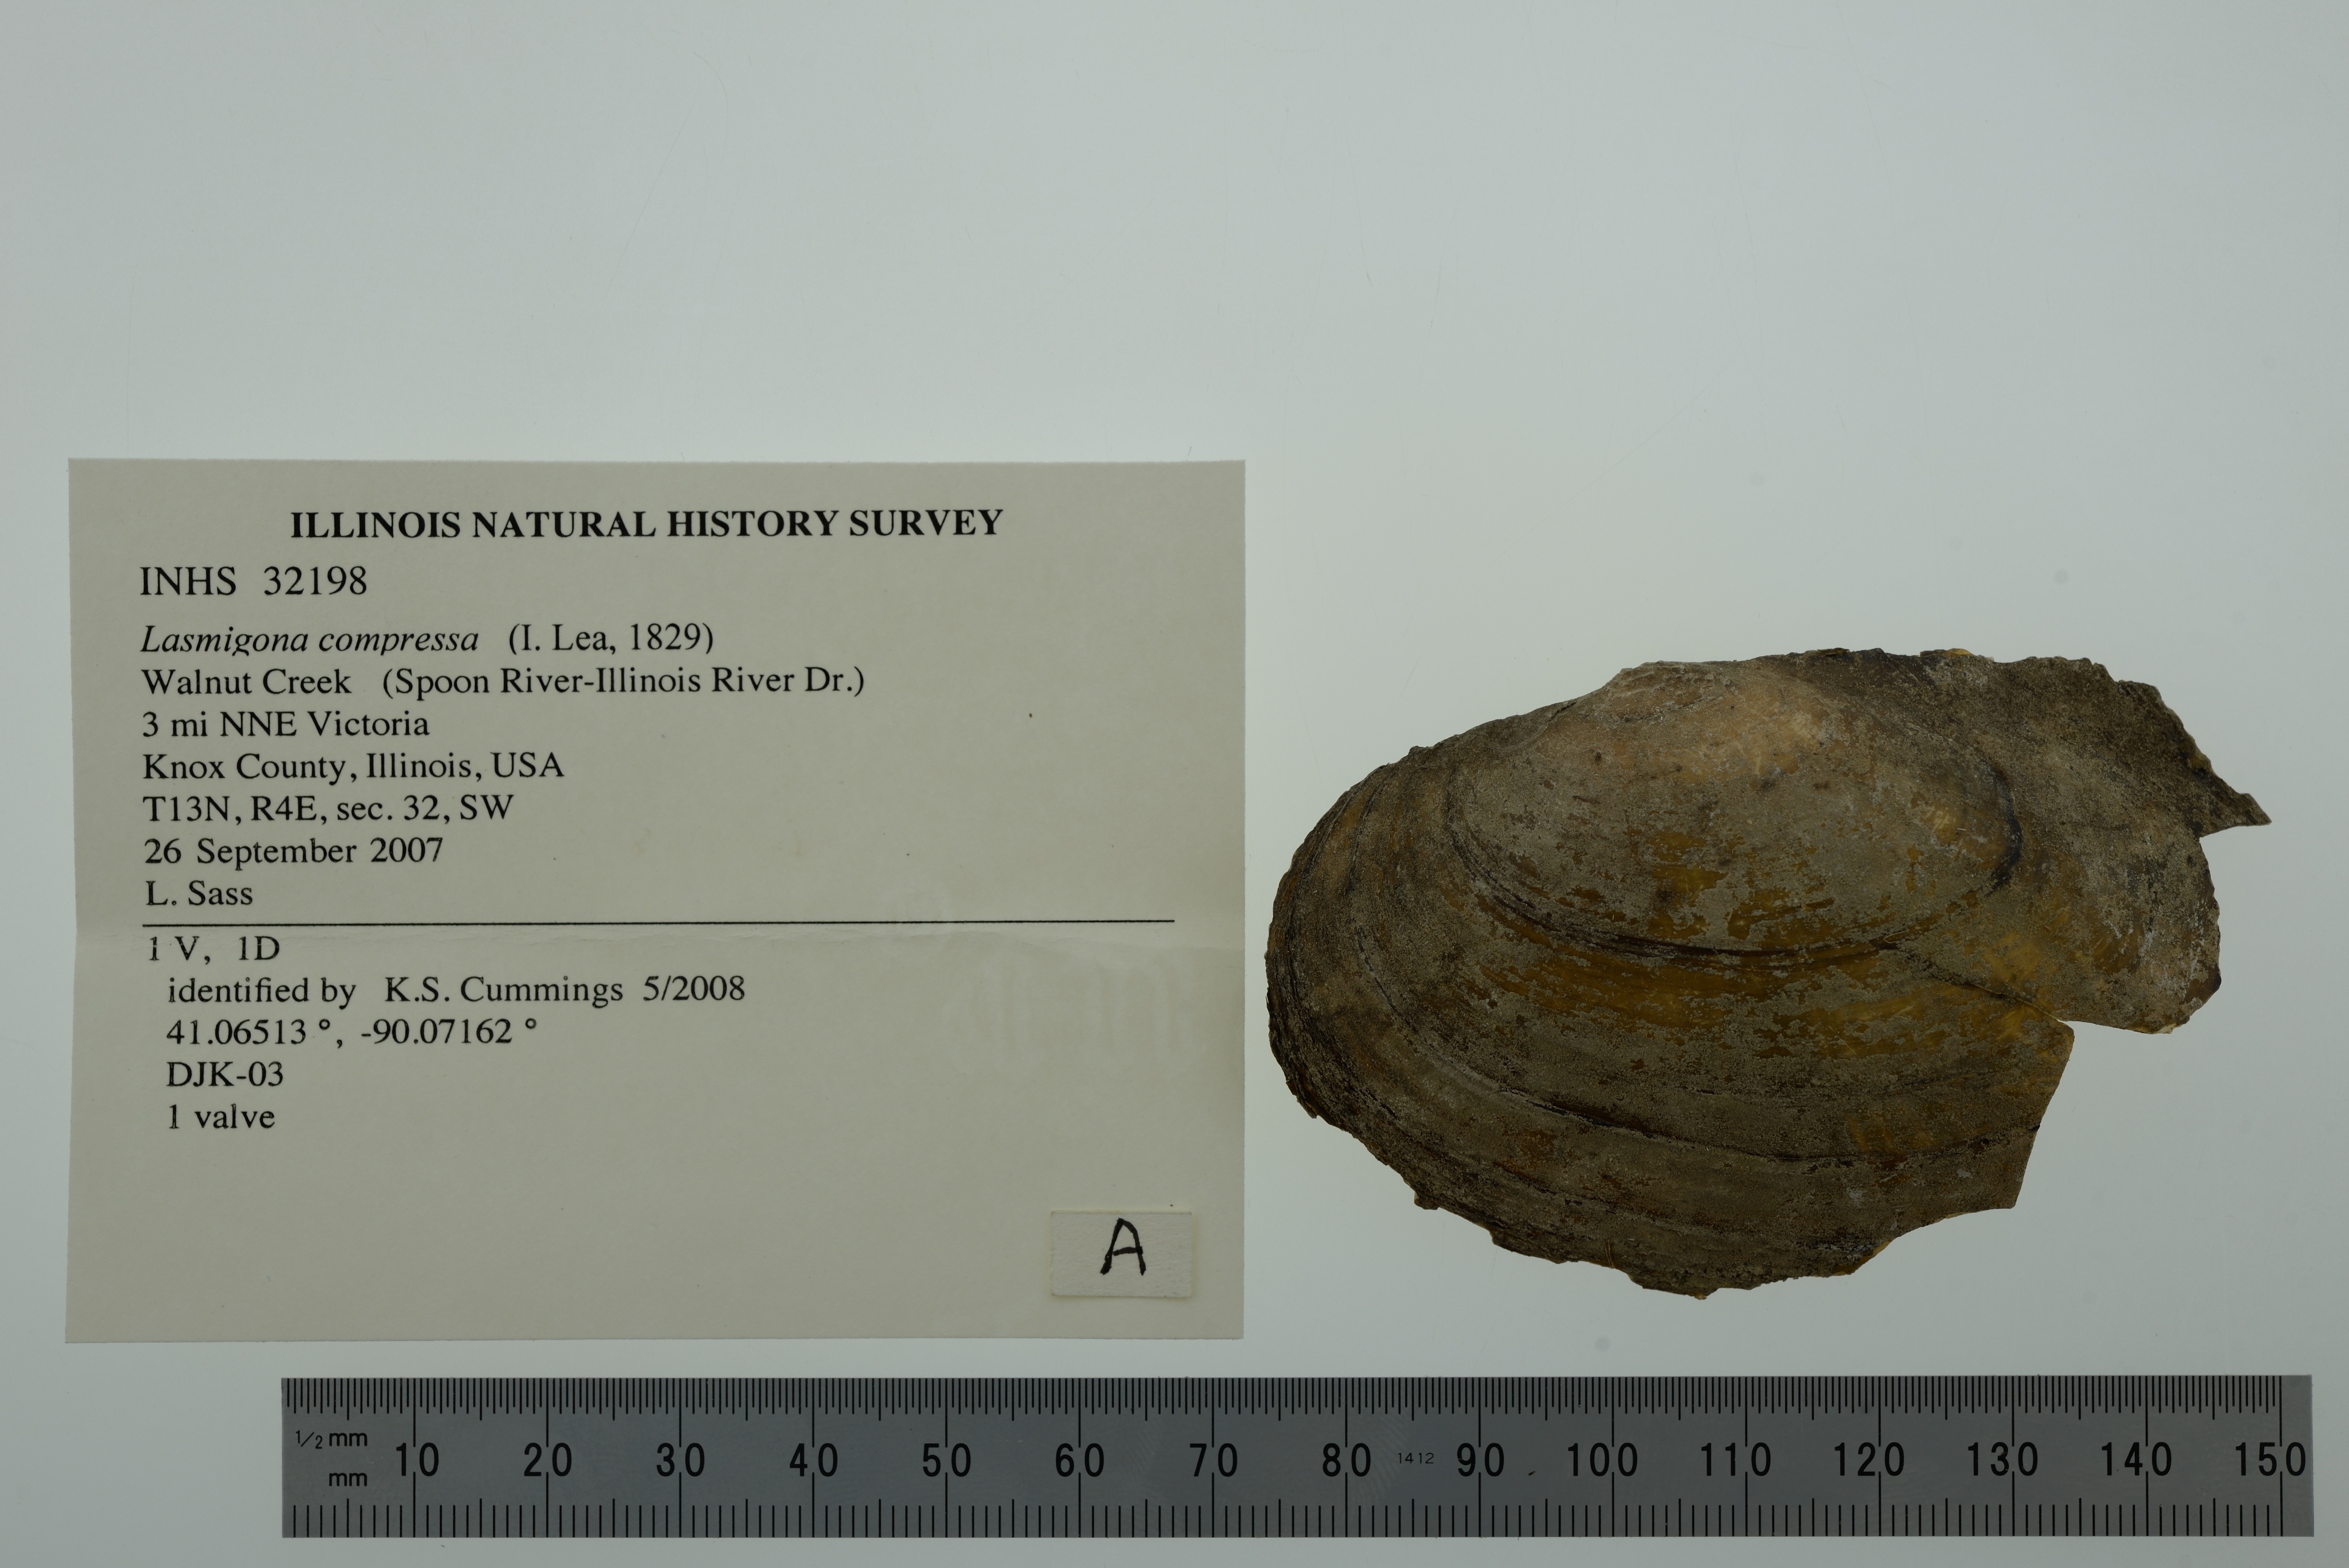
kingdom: Animalia
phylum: Mollusca
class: Bivalvia
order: Unionida
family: Unionidae
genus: Lasmigona
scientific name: Lasmigona compressa
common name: Creek heelsplitter
